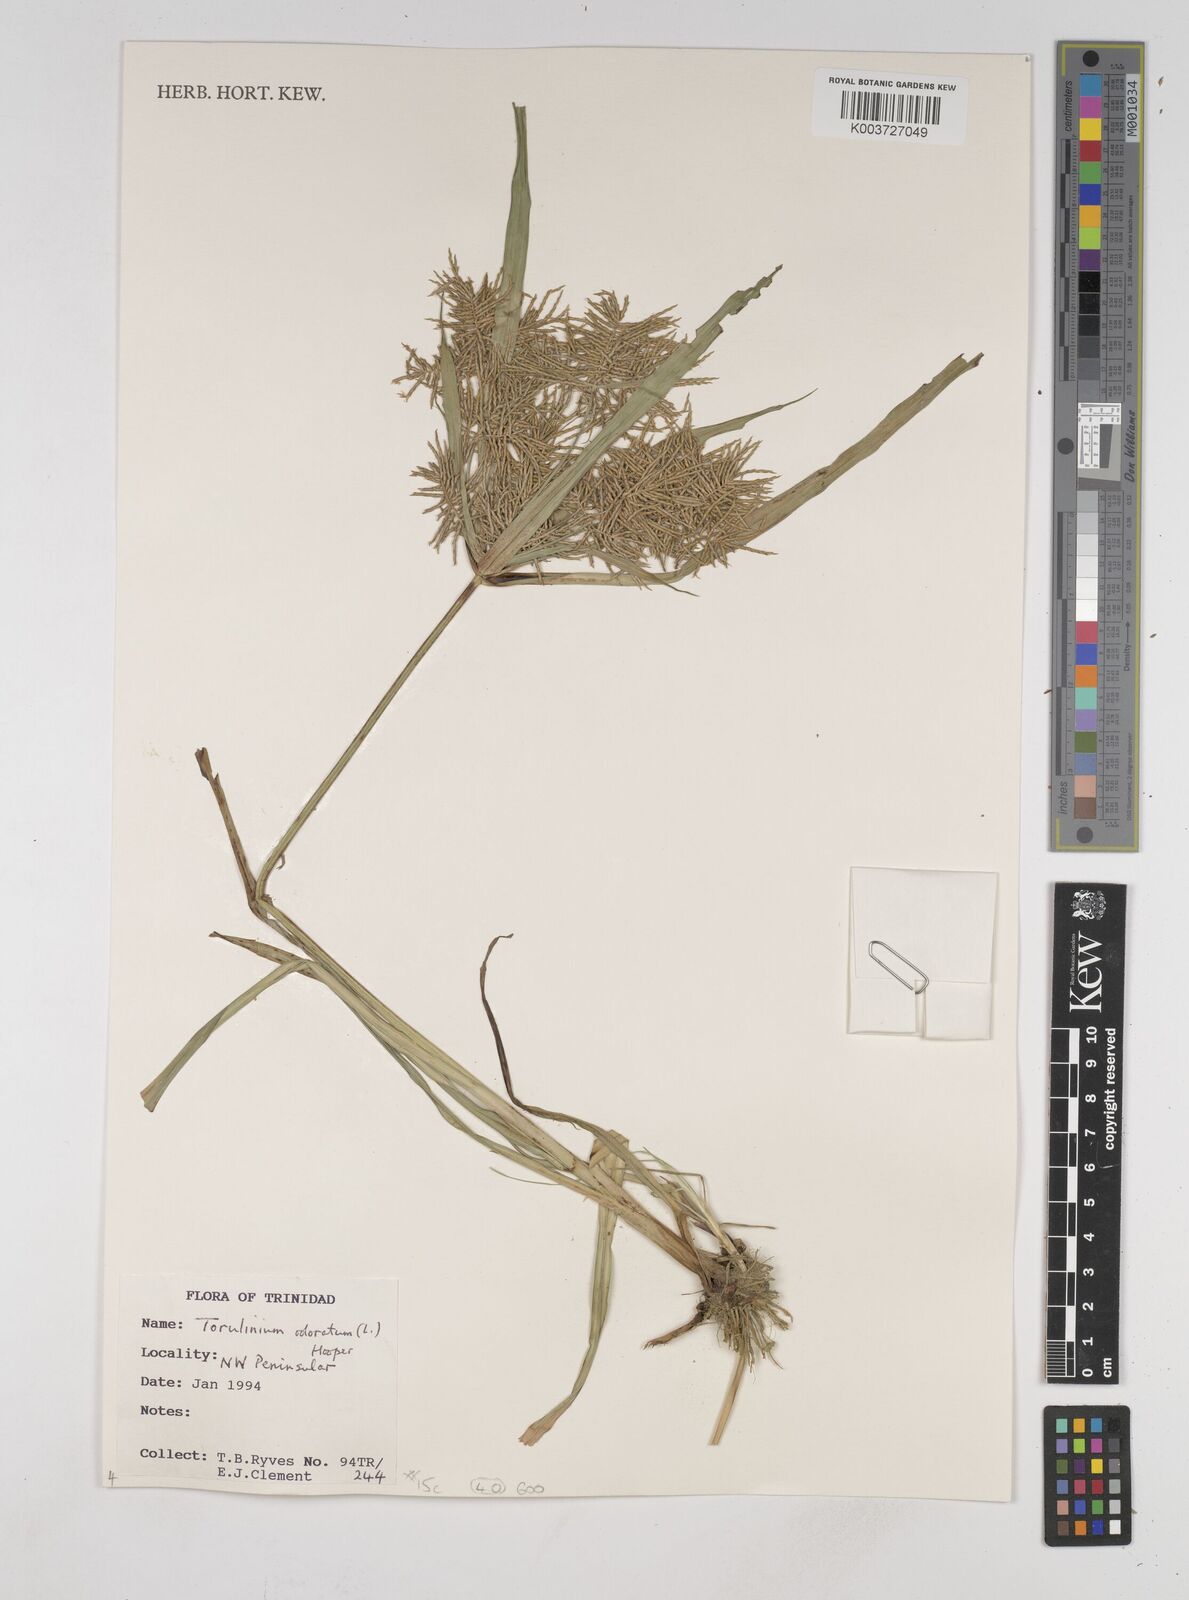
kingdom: Plantae
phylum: Tracheophyta
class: Liliopsida
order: Poales
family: Cyperaceae
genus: Cyperus
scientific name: Cyperus odoratus
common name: Fragrant flatsedge
